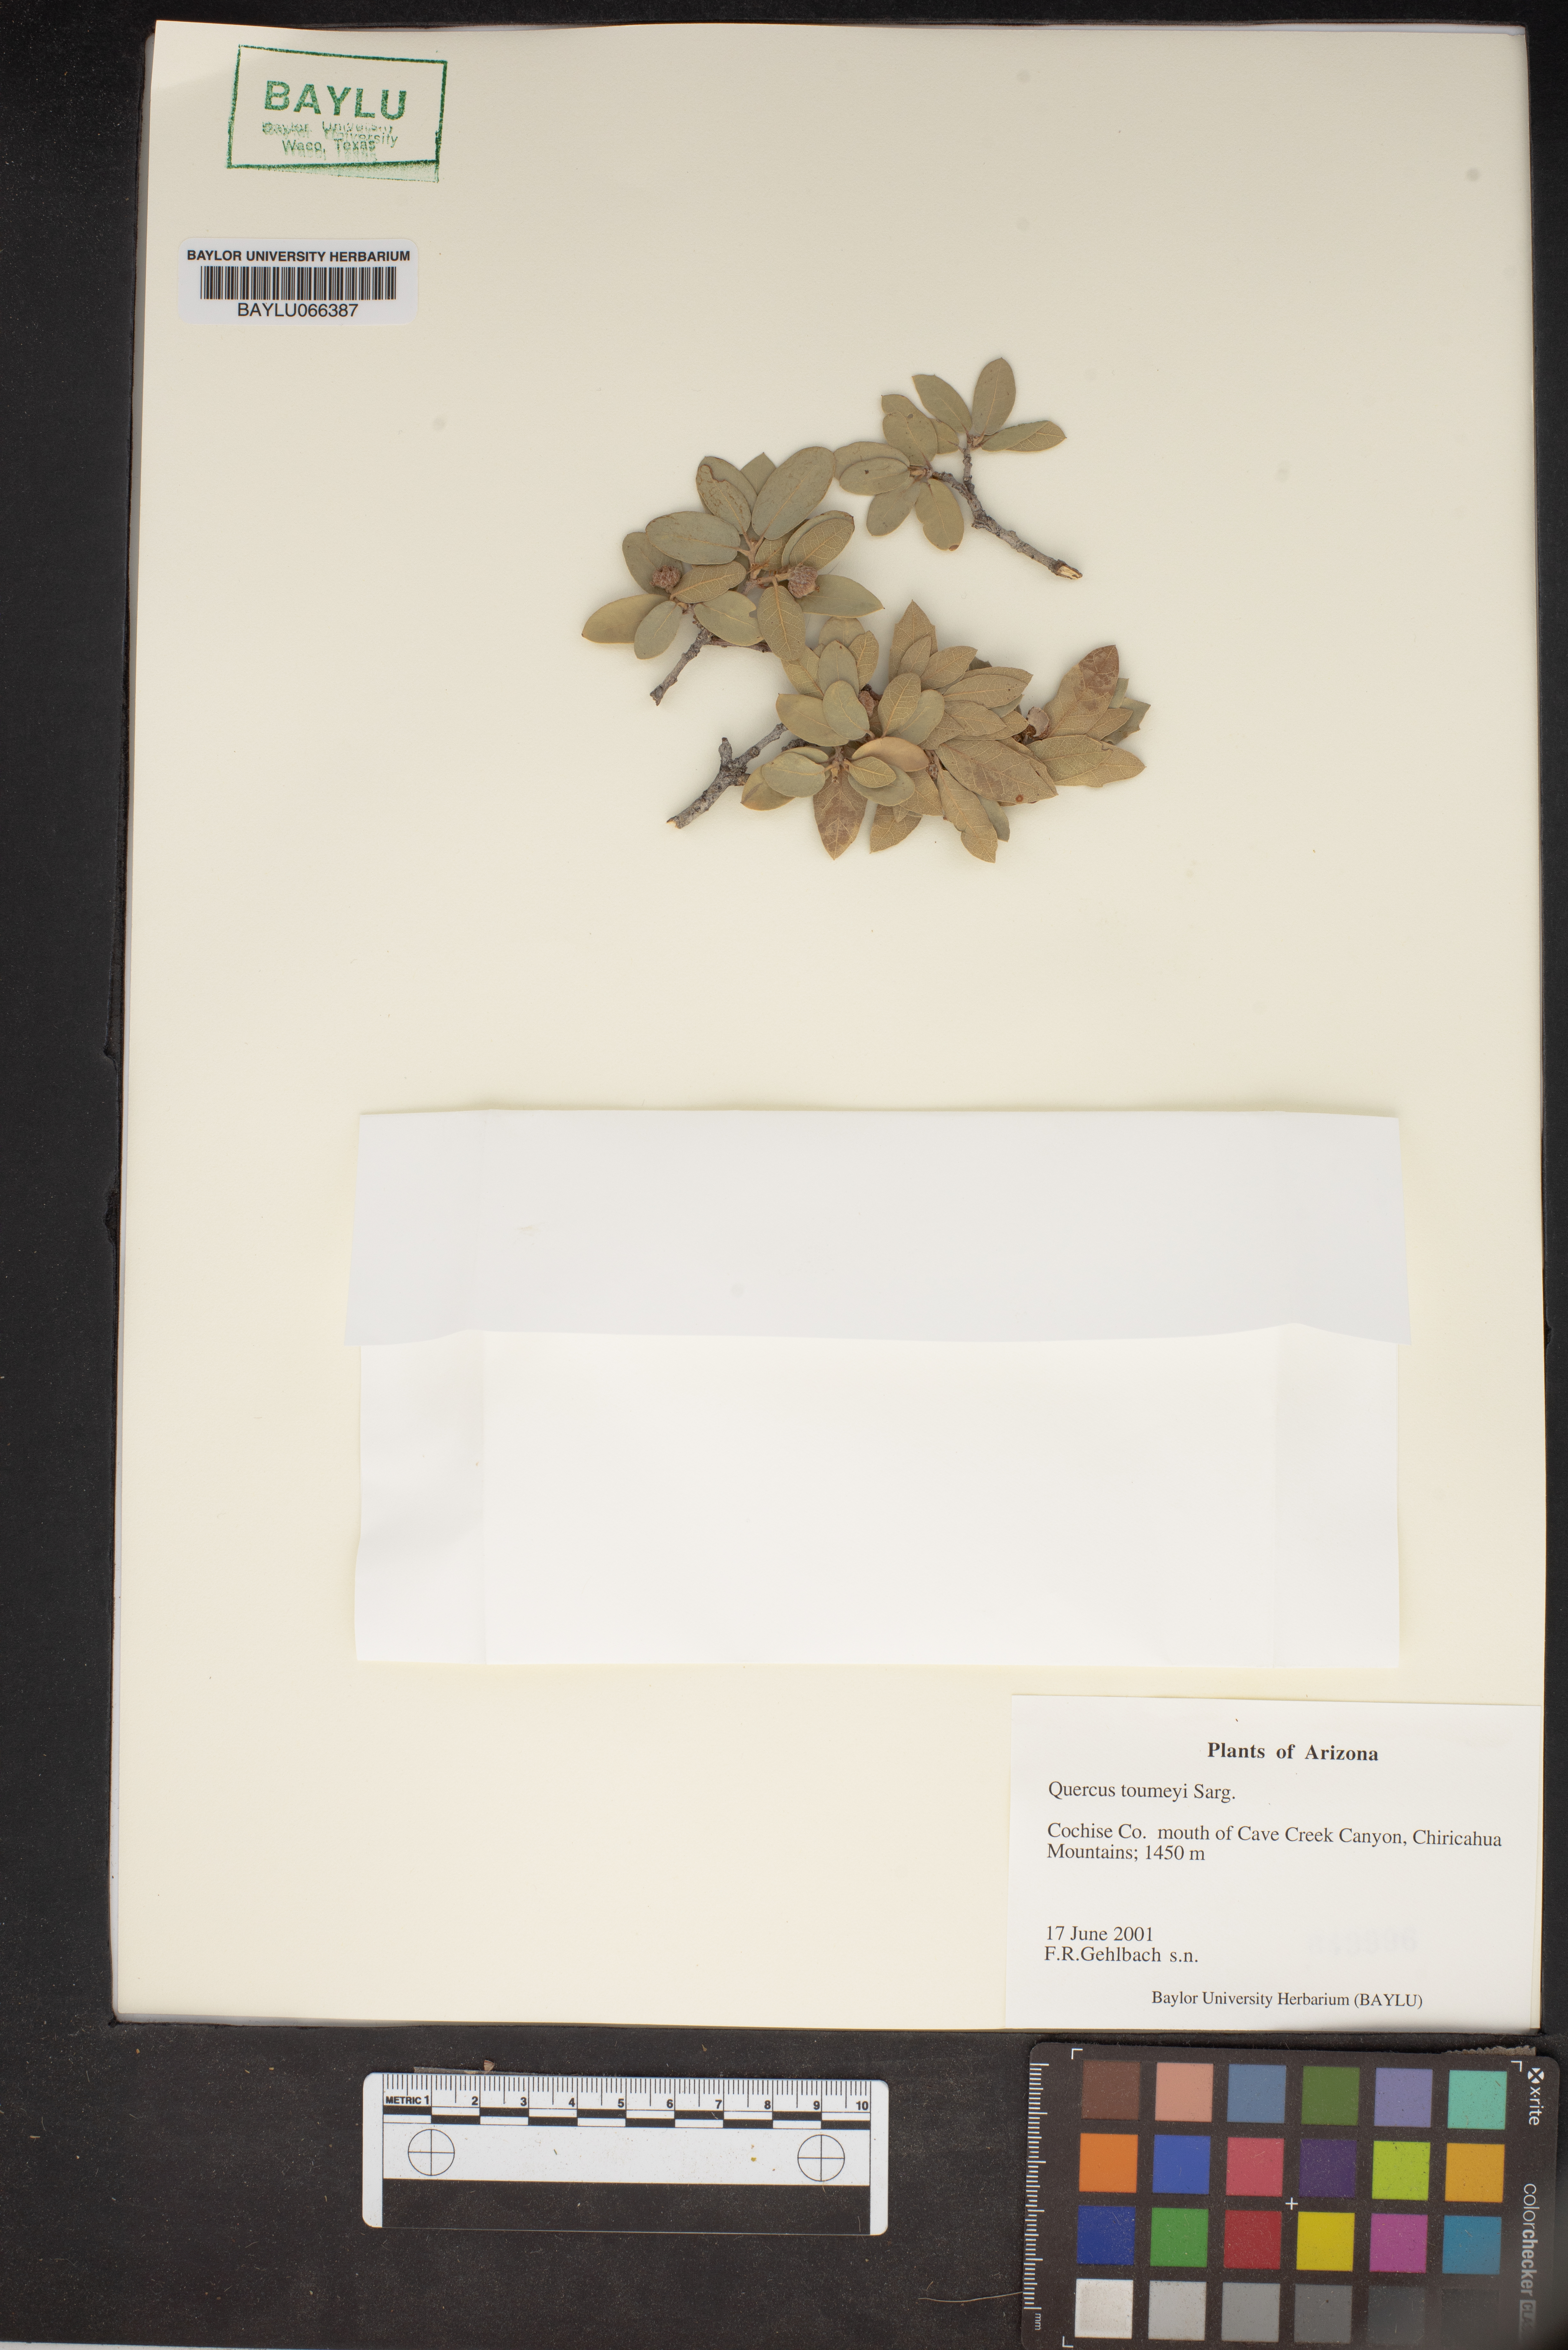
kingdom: Plantae
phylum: Tracheophyta
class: Magnoliopsida
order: Fagales
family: Fagaceae
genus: Quercus
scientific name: Quercus toumeyi
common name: Toumey oak
